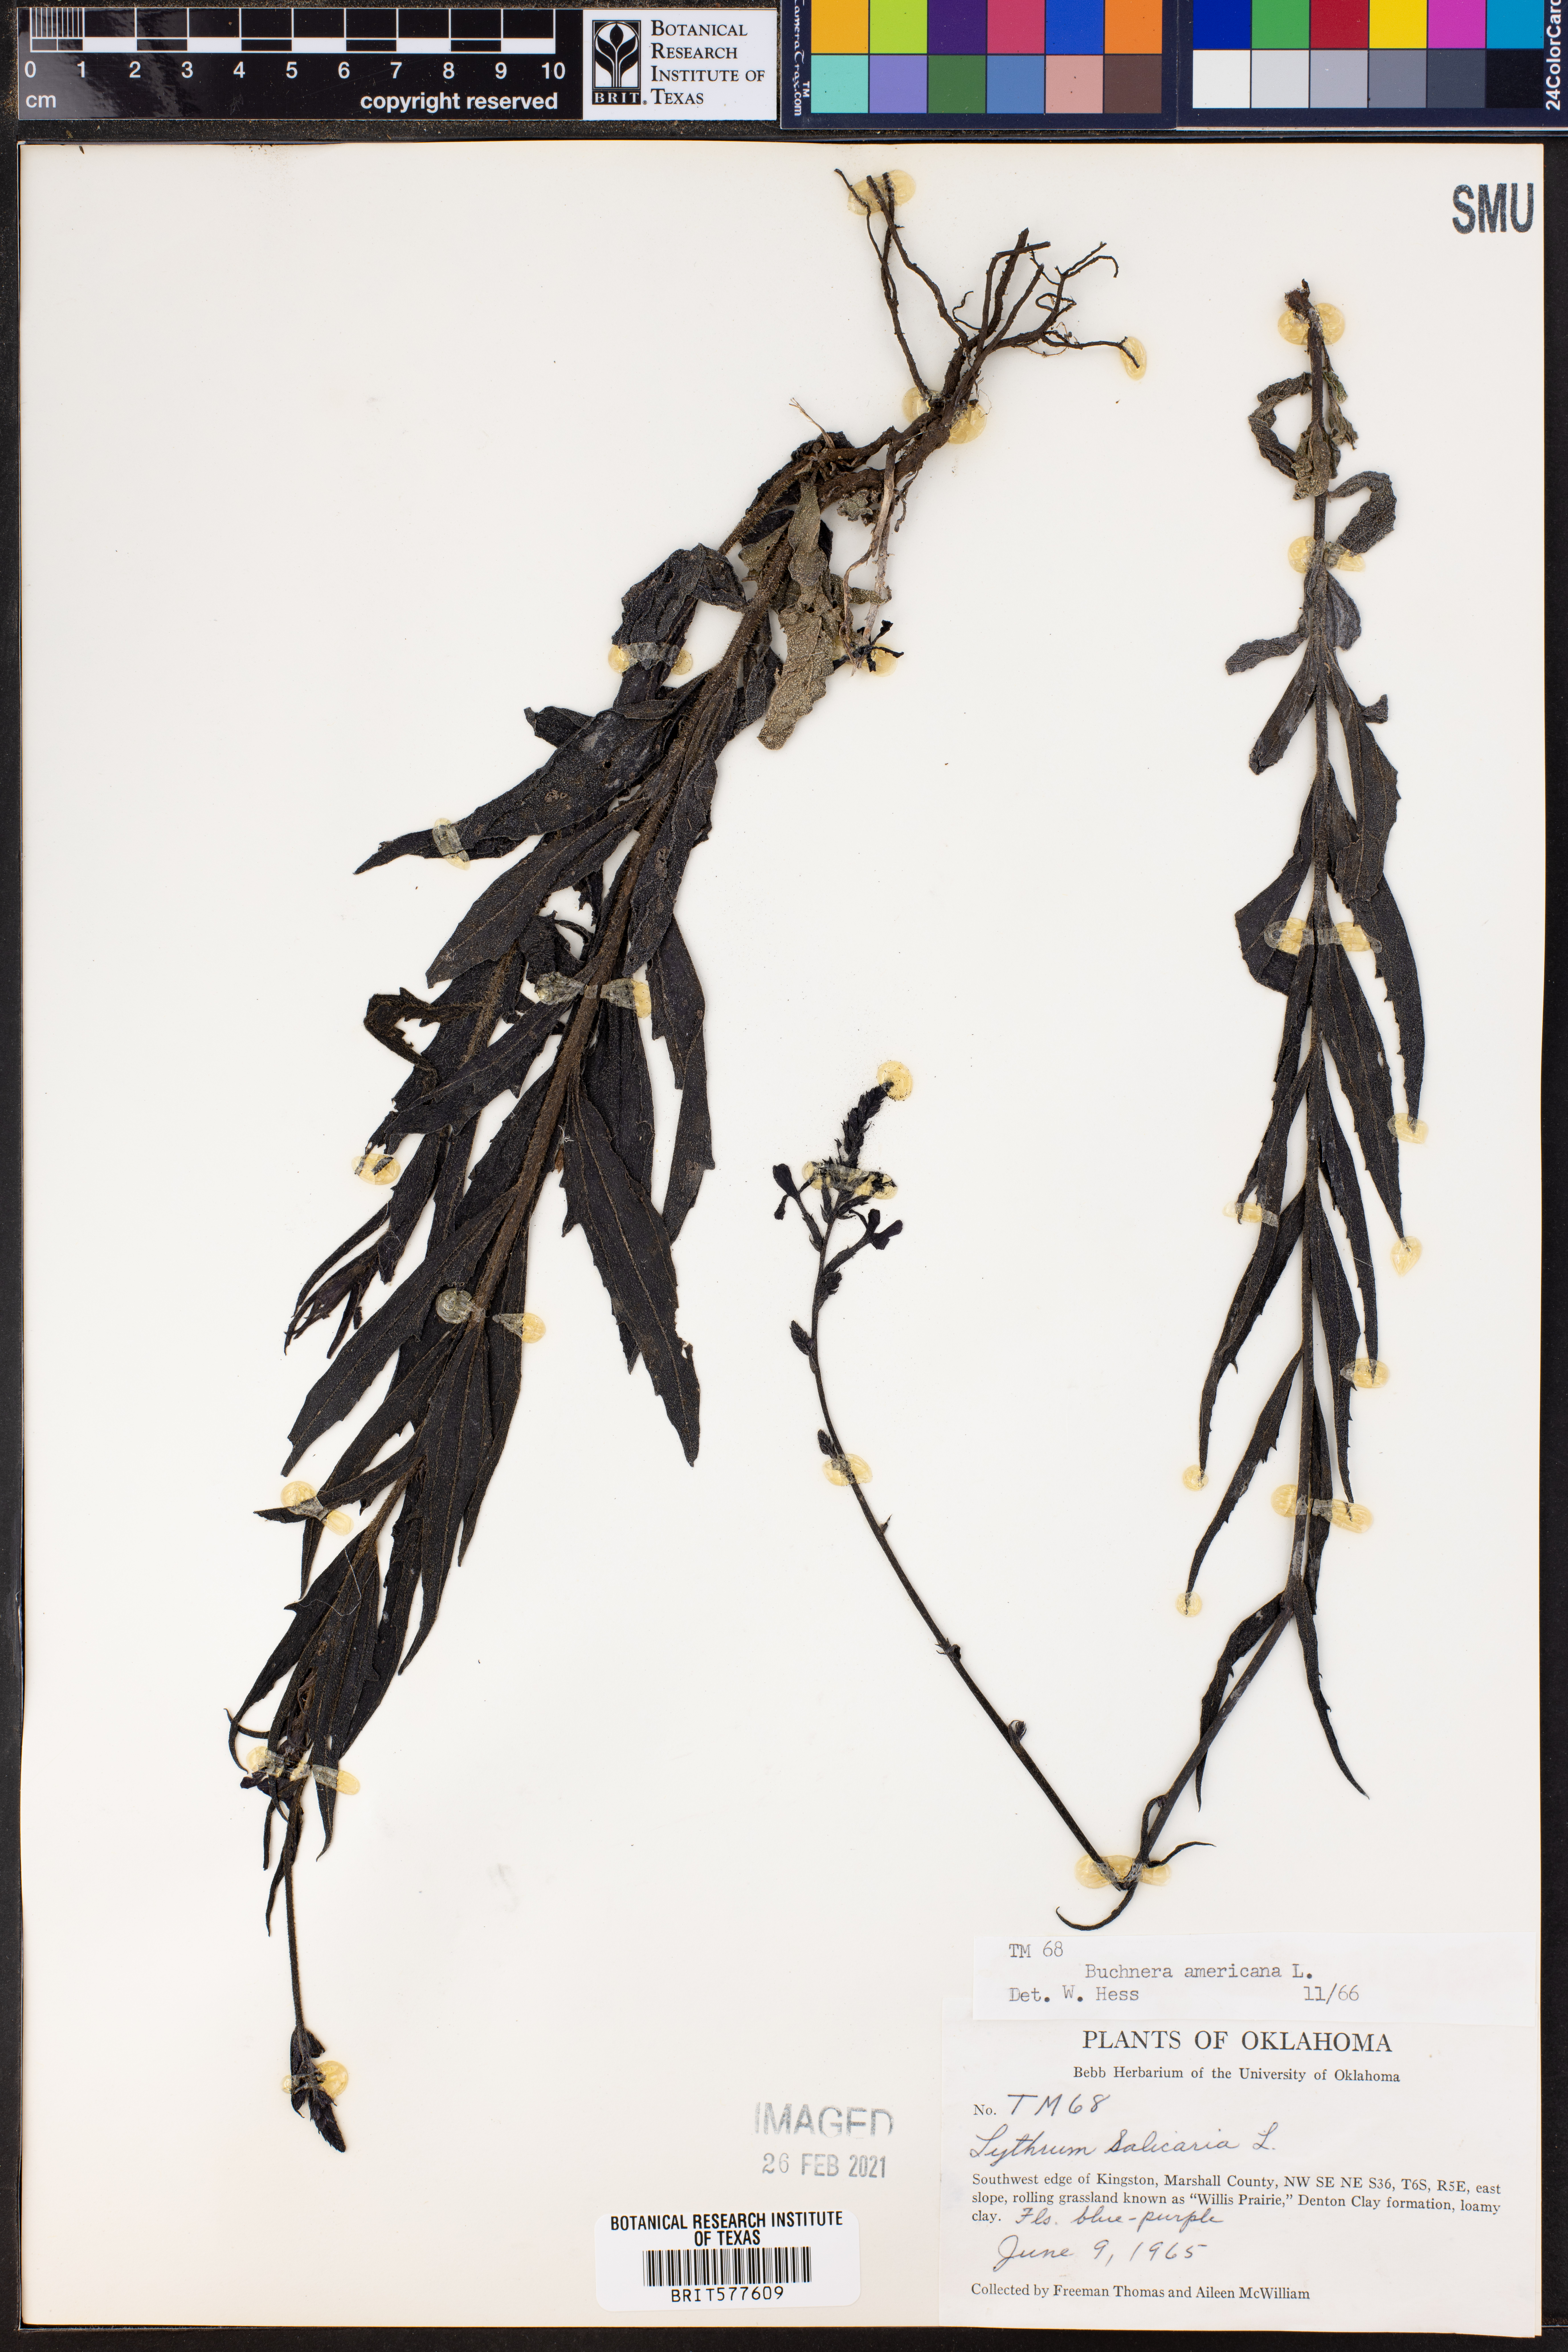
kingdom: Plantae
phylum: Tracheophyta
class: Magnoliopsida
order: Lamiales
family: Orobanchaceae
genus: Buchnera
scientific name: Buchnera americana
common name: American bluehearts
